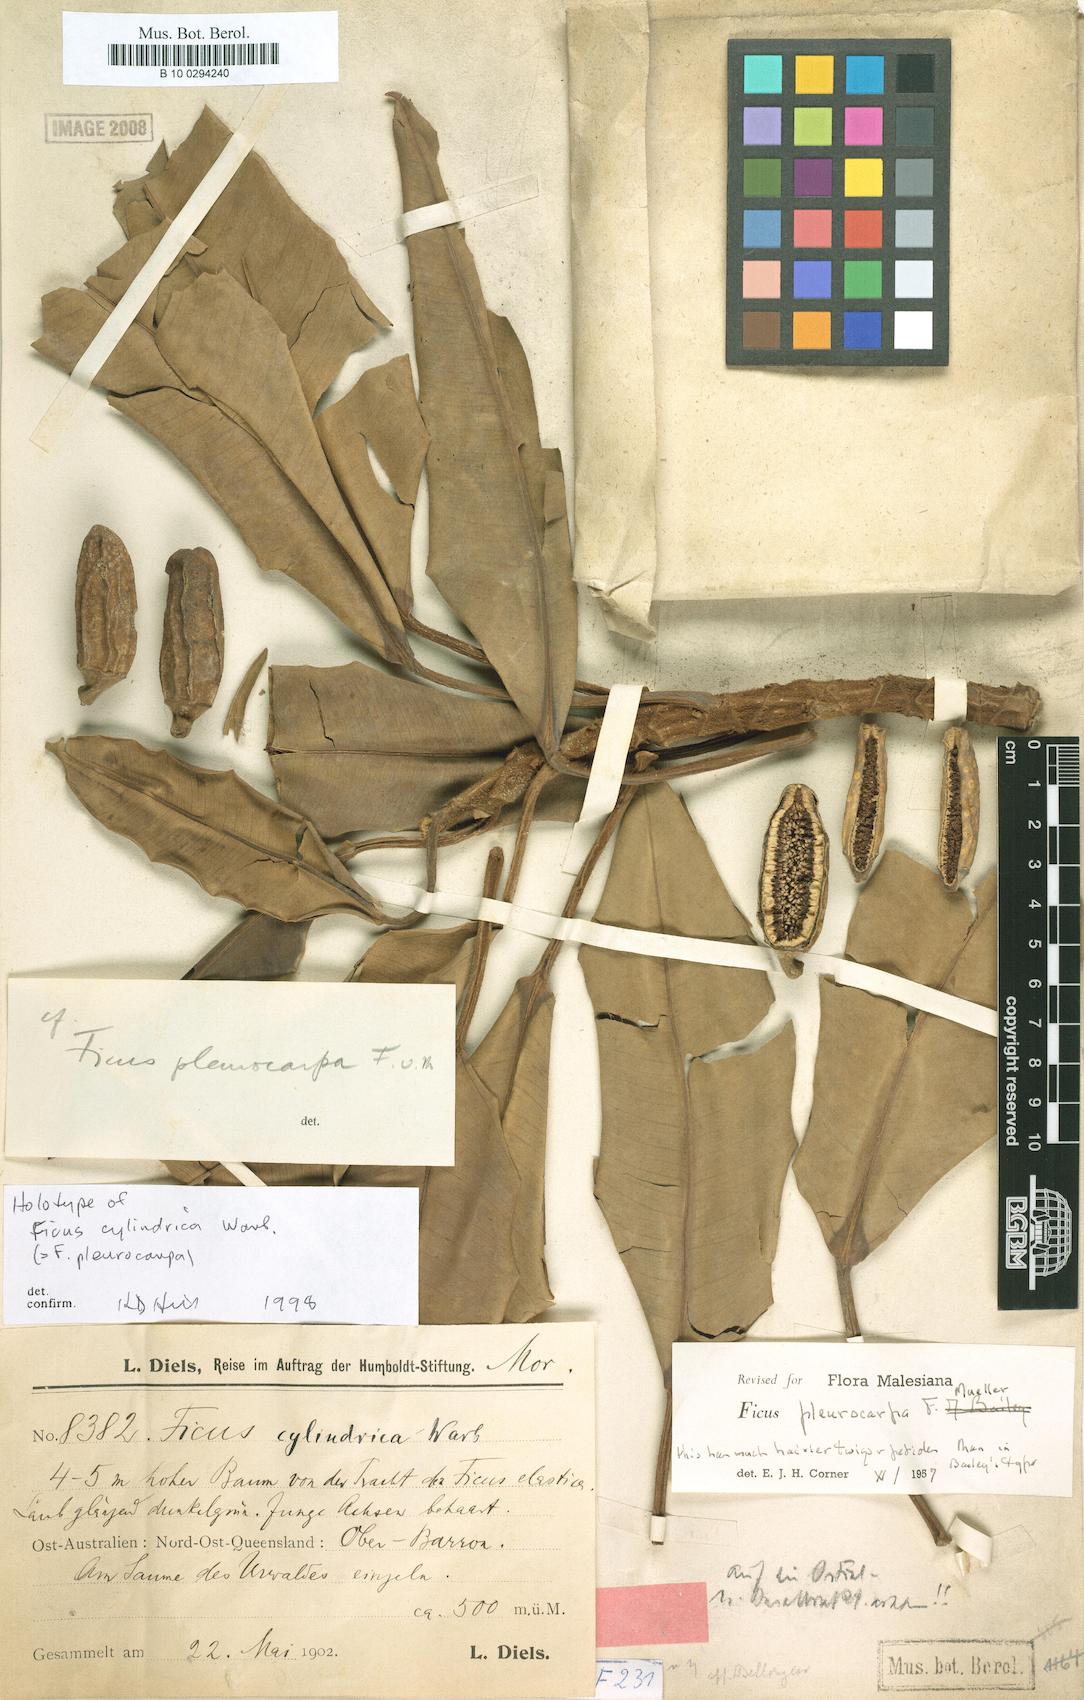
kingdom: Plantae
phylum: Tracheophyta
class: Magnoliopsida
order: Rosales
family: Moraceae
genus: Ficus
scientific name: Ficus pleurocarpa
